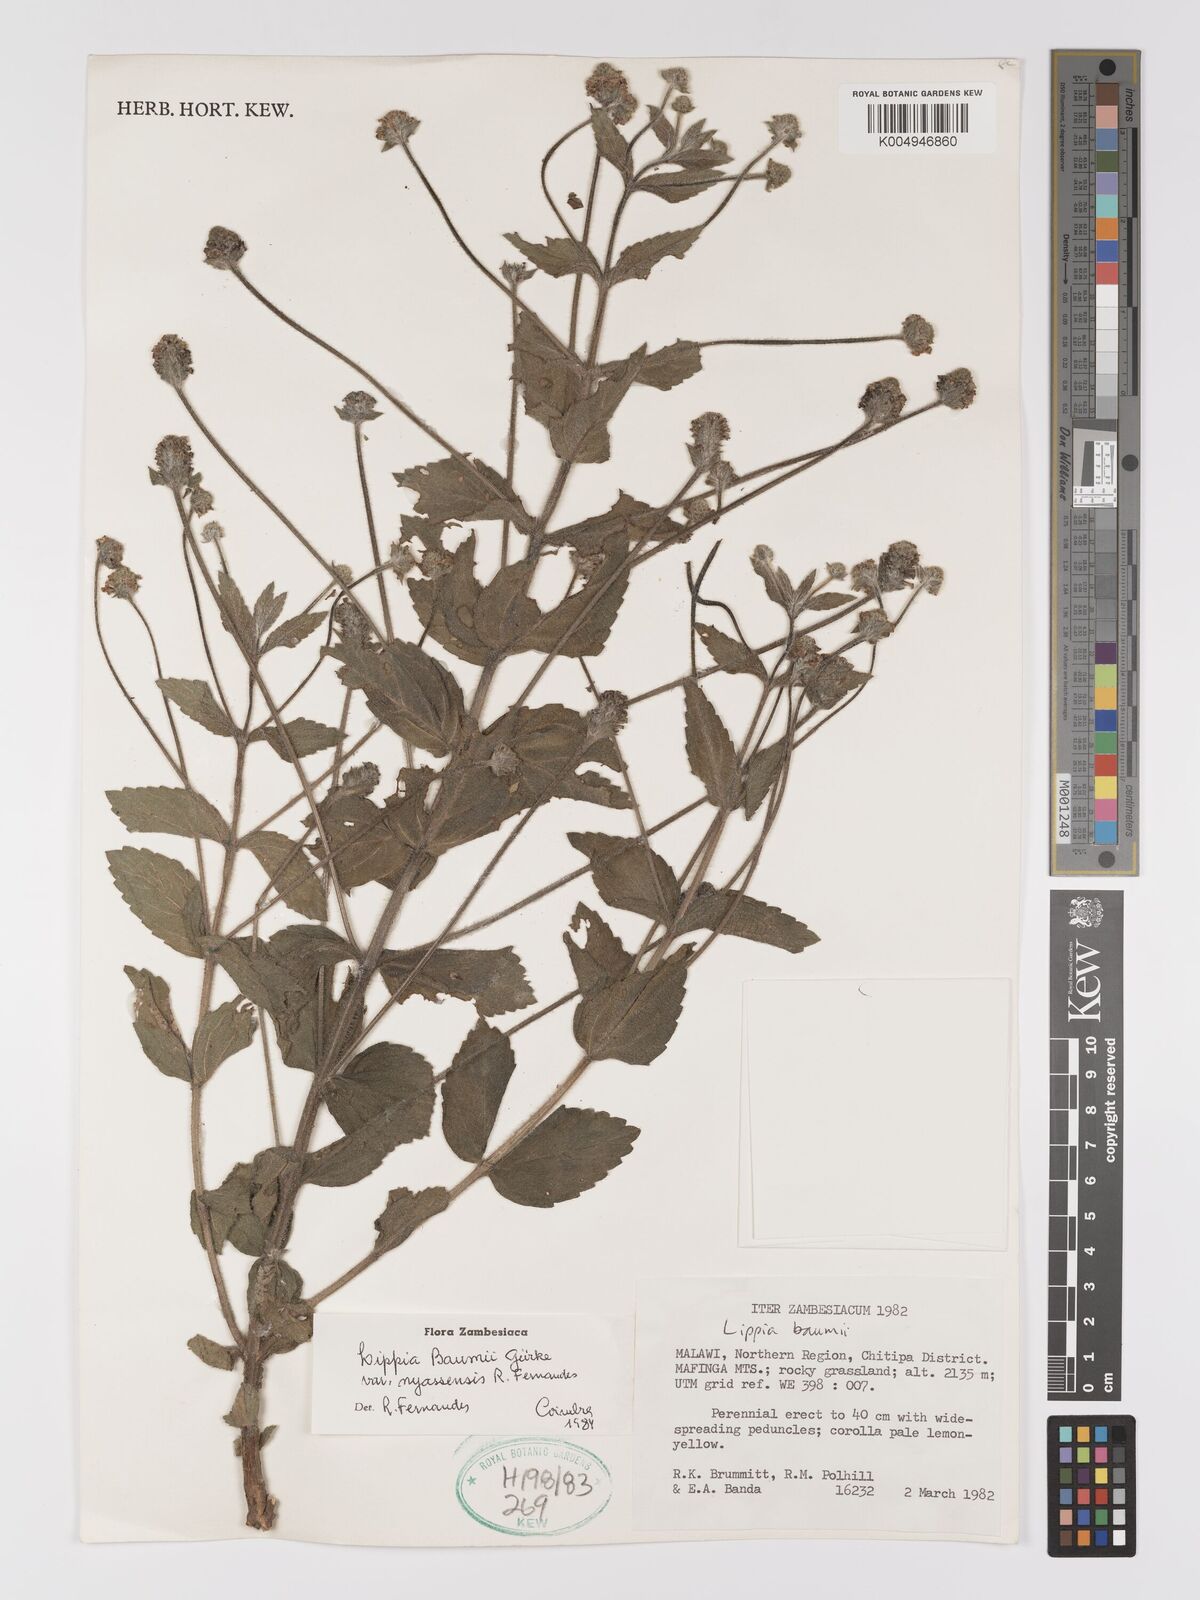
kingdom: Plantae
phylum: Tracheophyta
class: Magnoliopsida
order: Lamiales
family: Verbenaceae
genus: Lippia
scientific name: Lippia baumii
